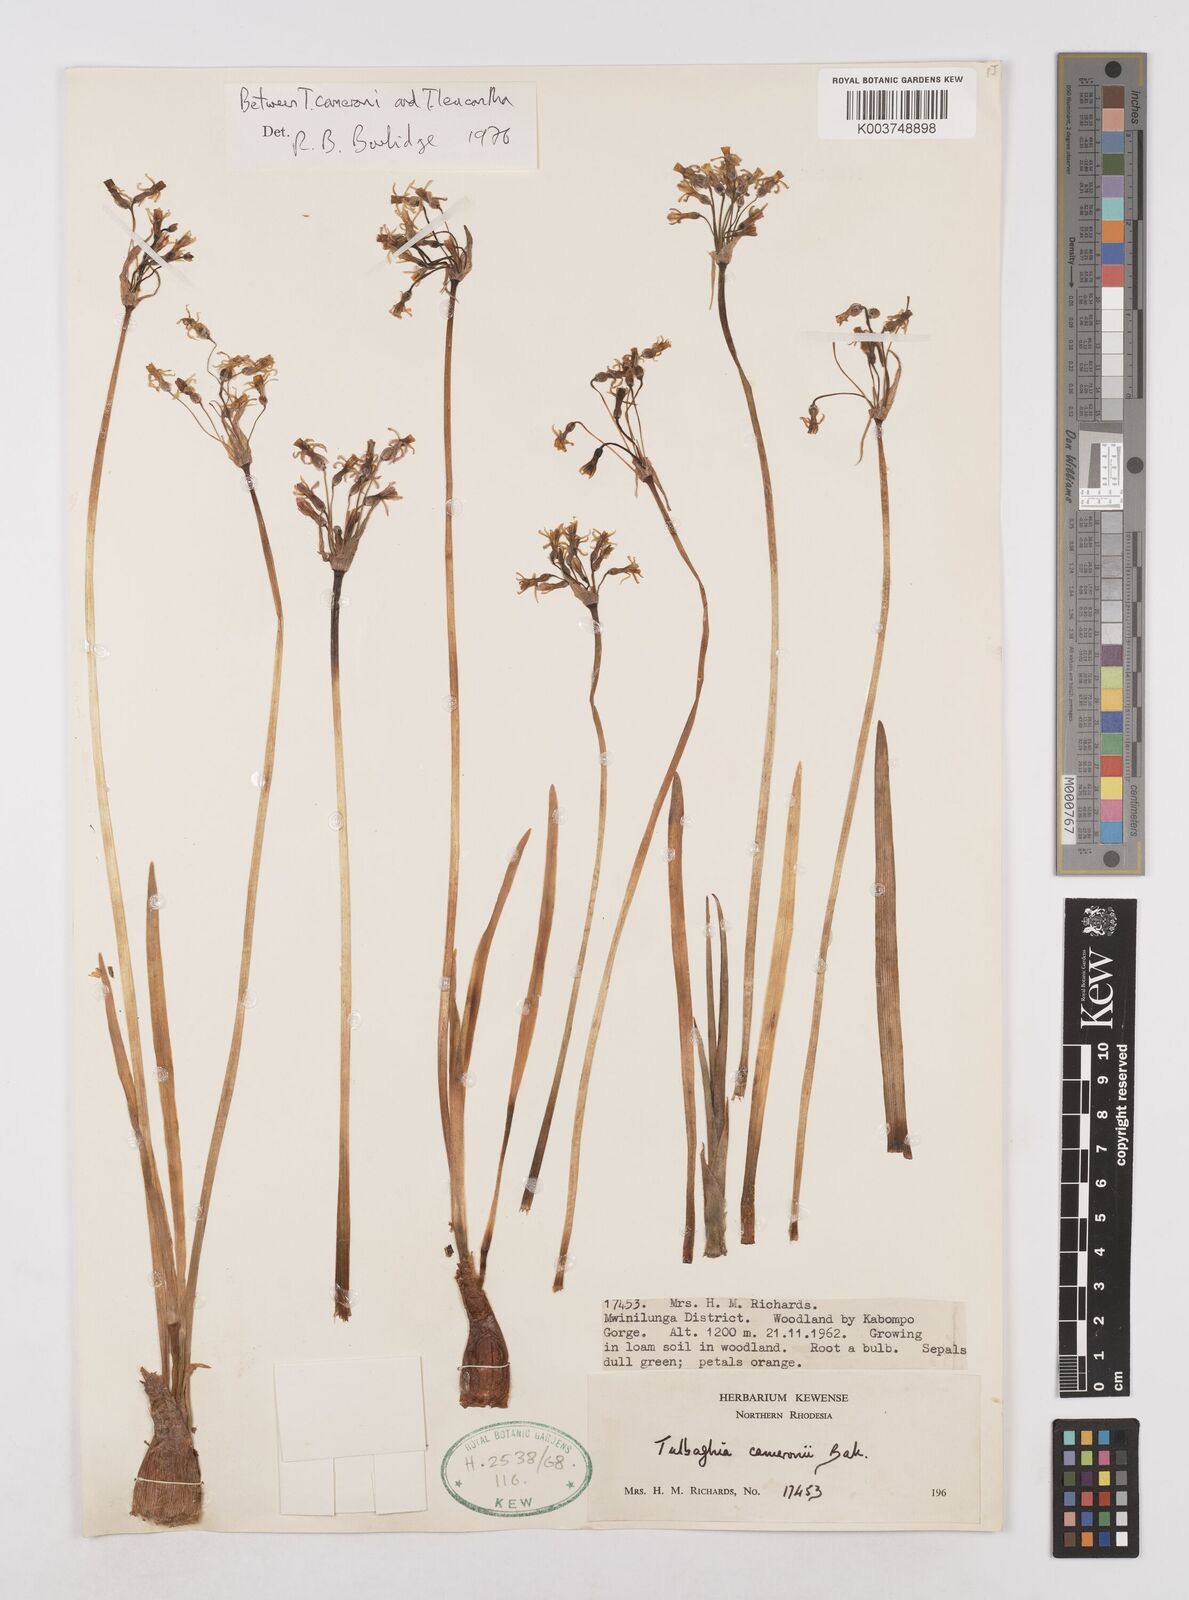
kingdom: Plantae
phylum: Tracheophyta
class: Liliopsida
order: Asparagales
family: Amaryllidaceae
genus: Tulbaghia
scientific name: Tulbaghia
